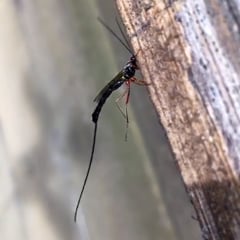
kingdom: Animalia
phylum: Arthropoda
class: Insecta
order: Hymenoptera
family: Ichneumonidae
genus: Ephialtes
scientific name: Ephialtes manifestator
